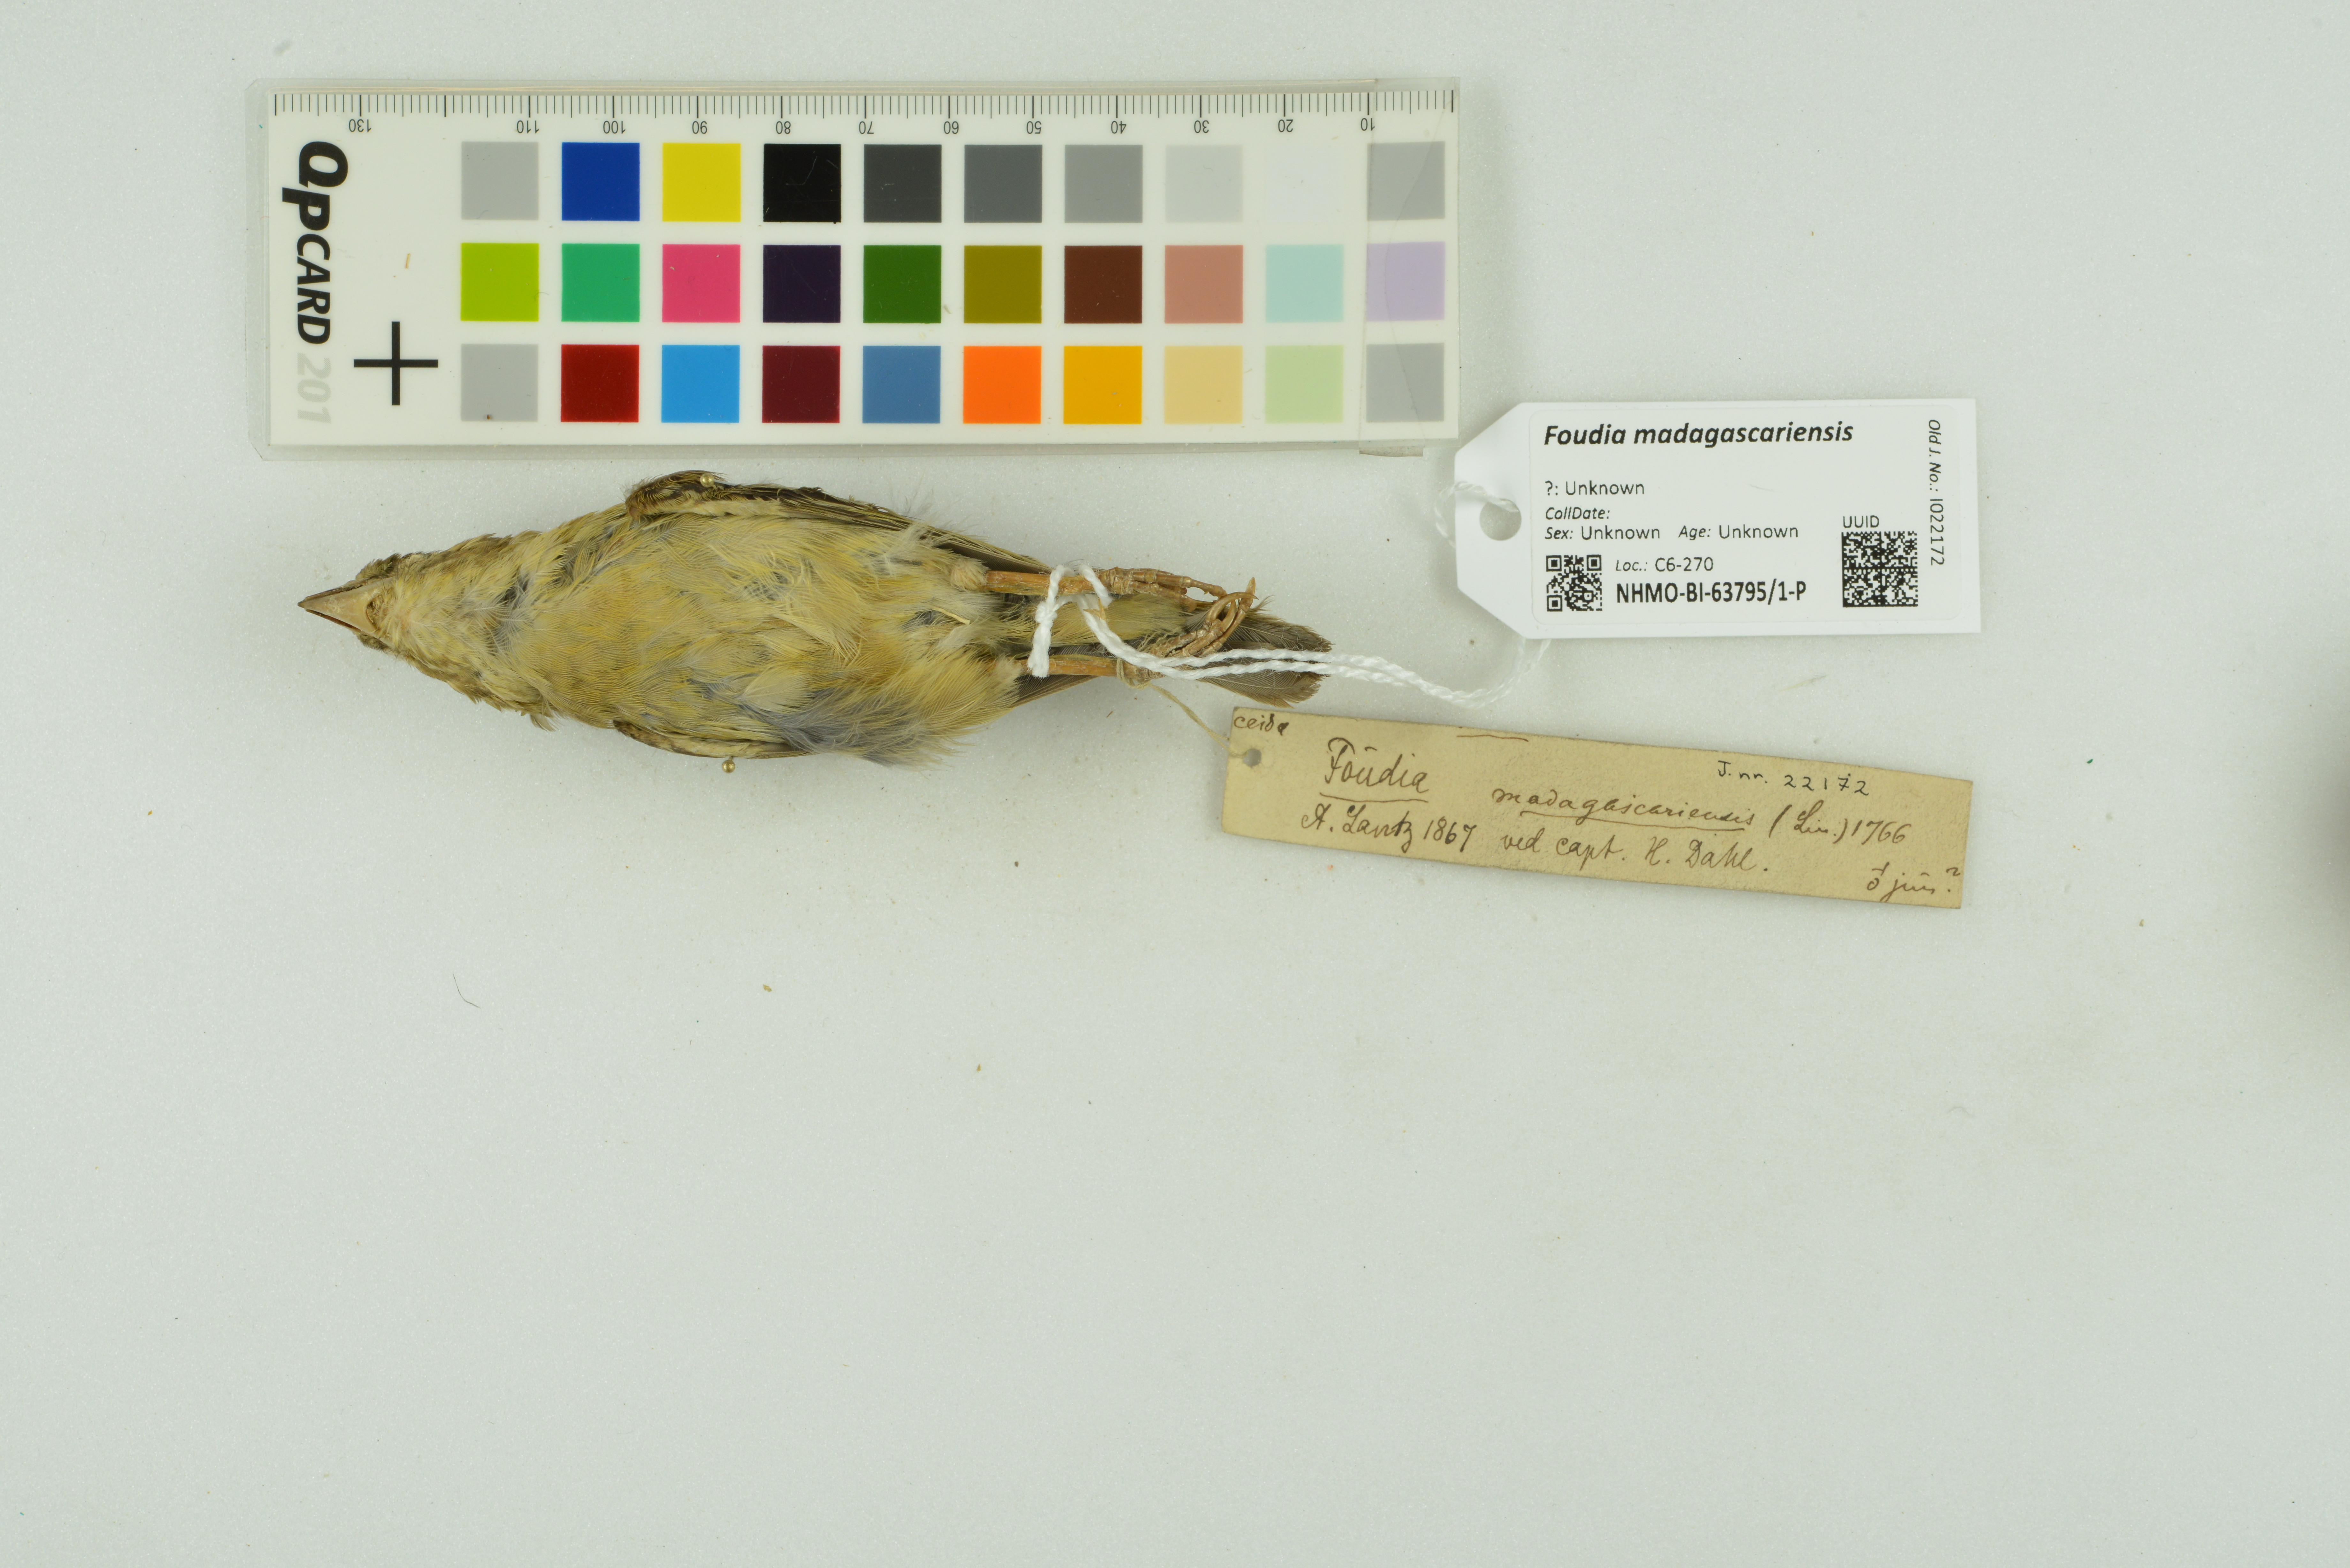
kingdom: Animalia
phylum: Chordata
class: Aves
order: Passeriformes
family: Ploceidae
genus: Foudia
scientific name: Foudia madagascariensis
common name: Red fody
